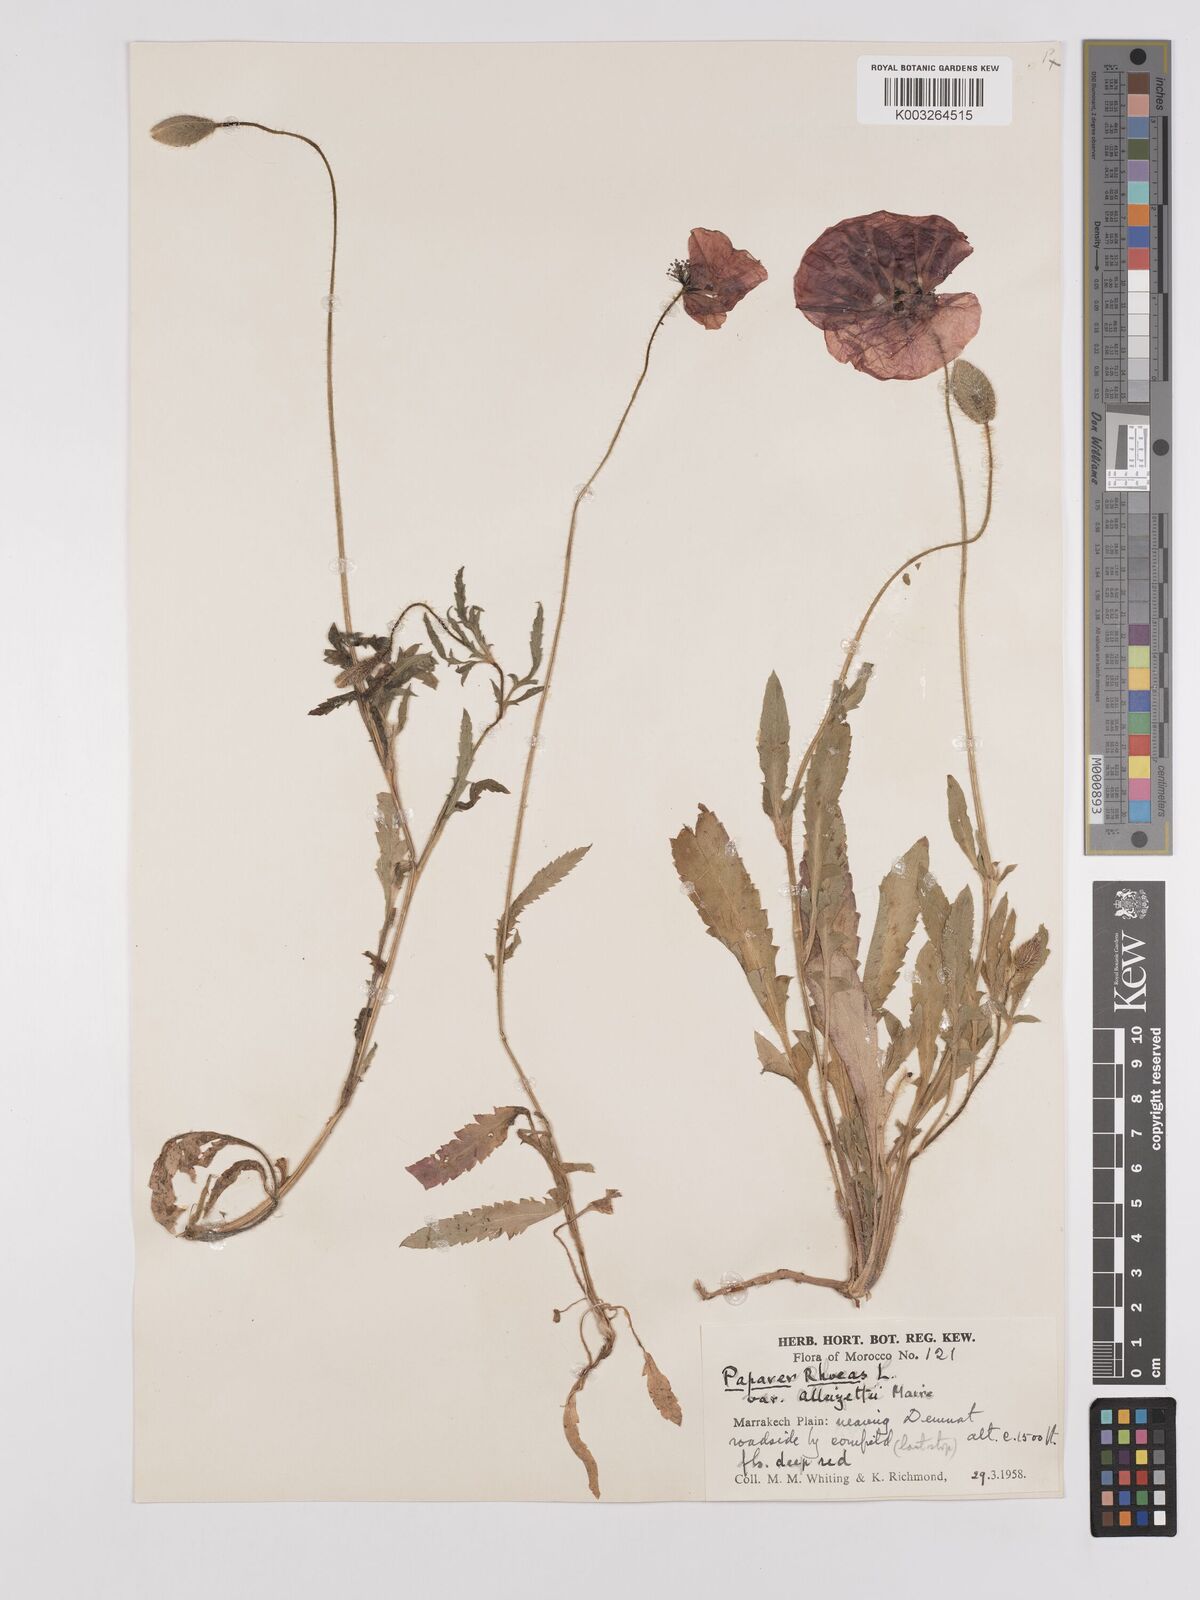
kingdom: Plantae
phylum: Tracheophyta
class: Magnoliopsida
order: Ranunculales
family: Papaveraceae
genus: Papaver
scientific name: Papaver rhoeas
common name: Corn poppy
